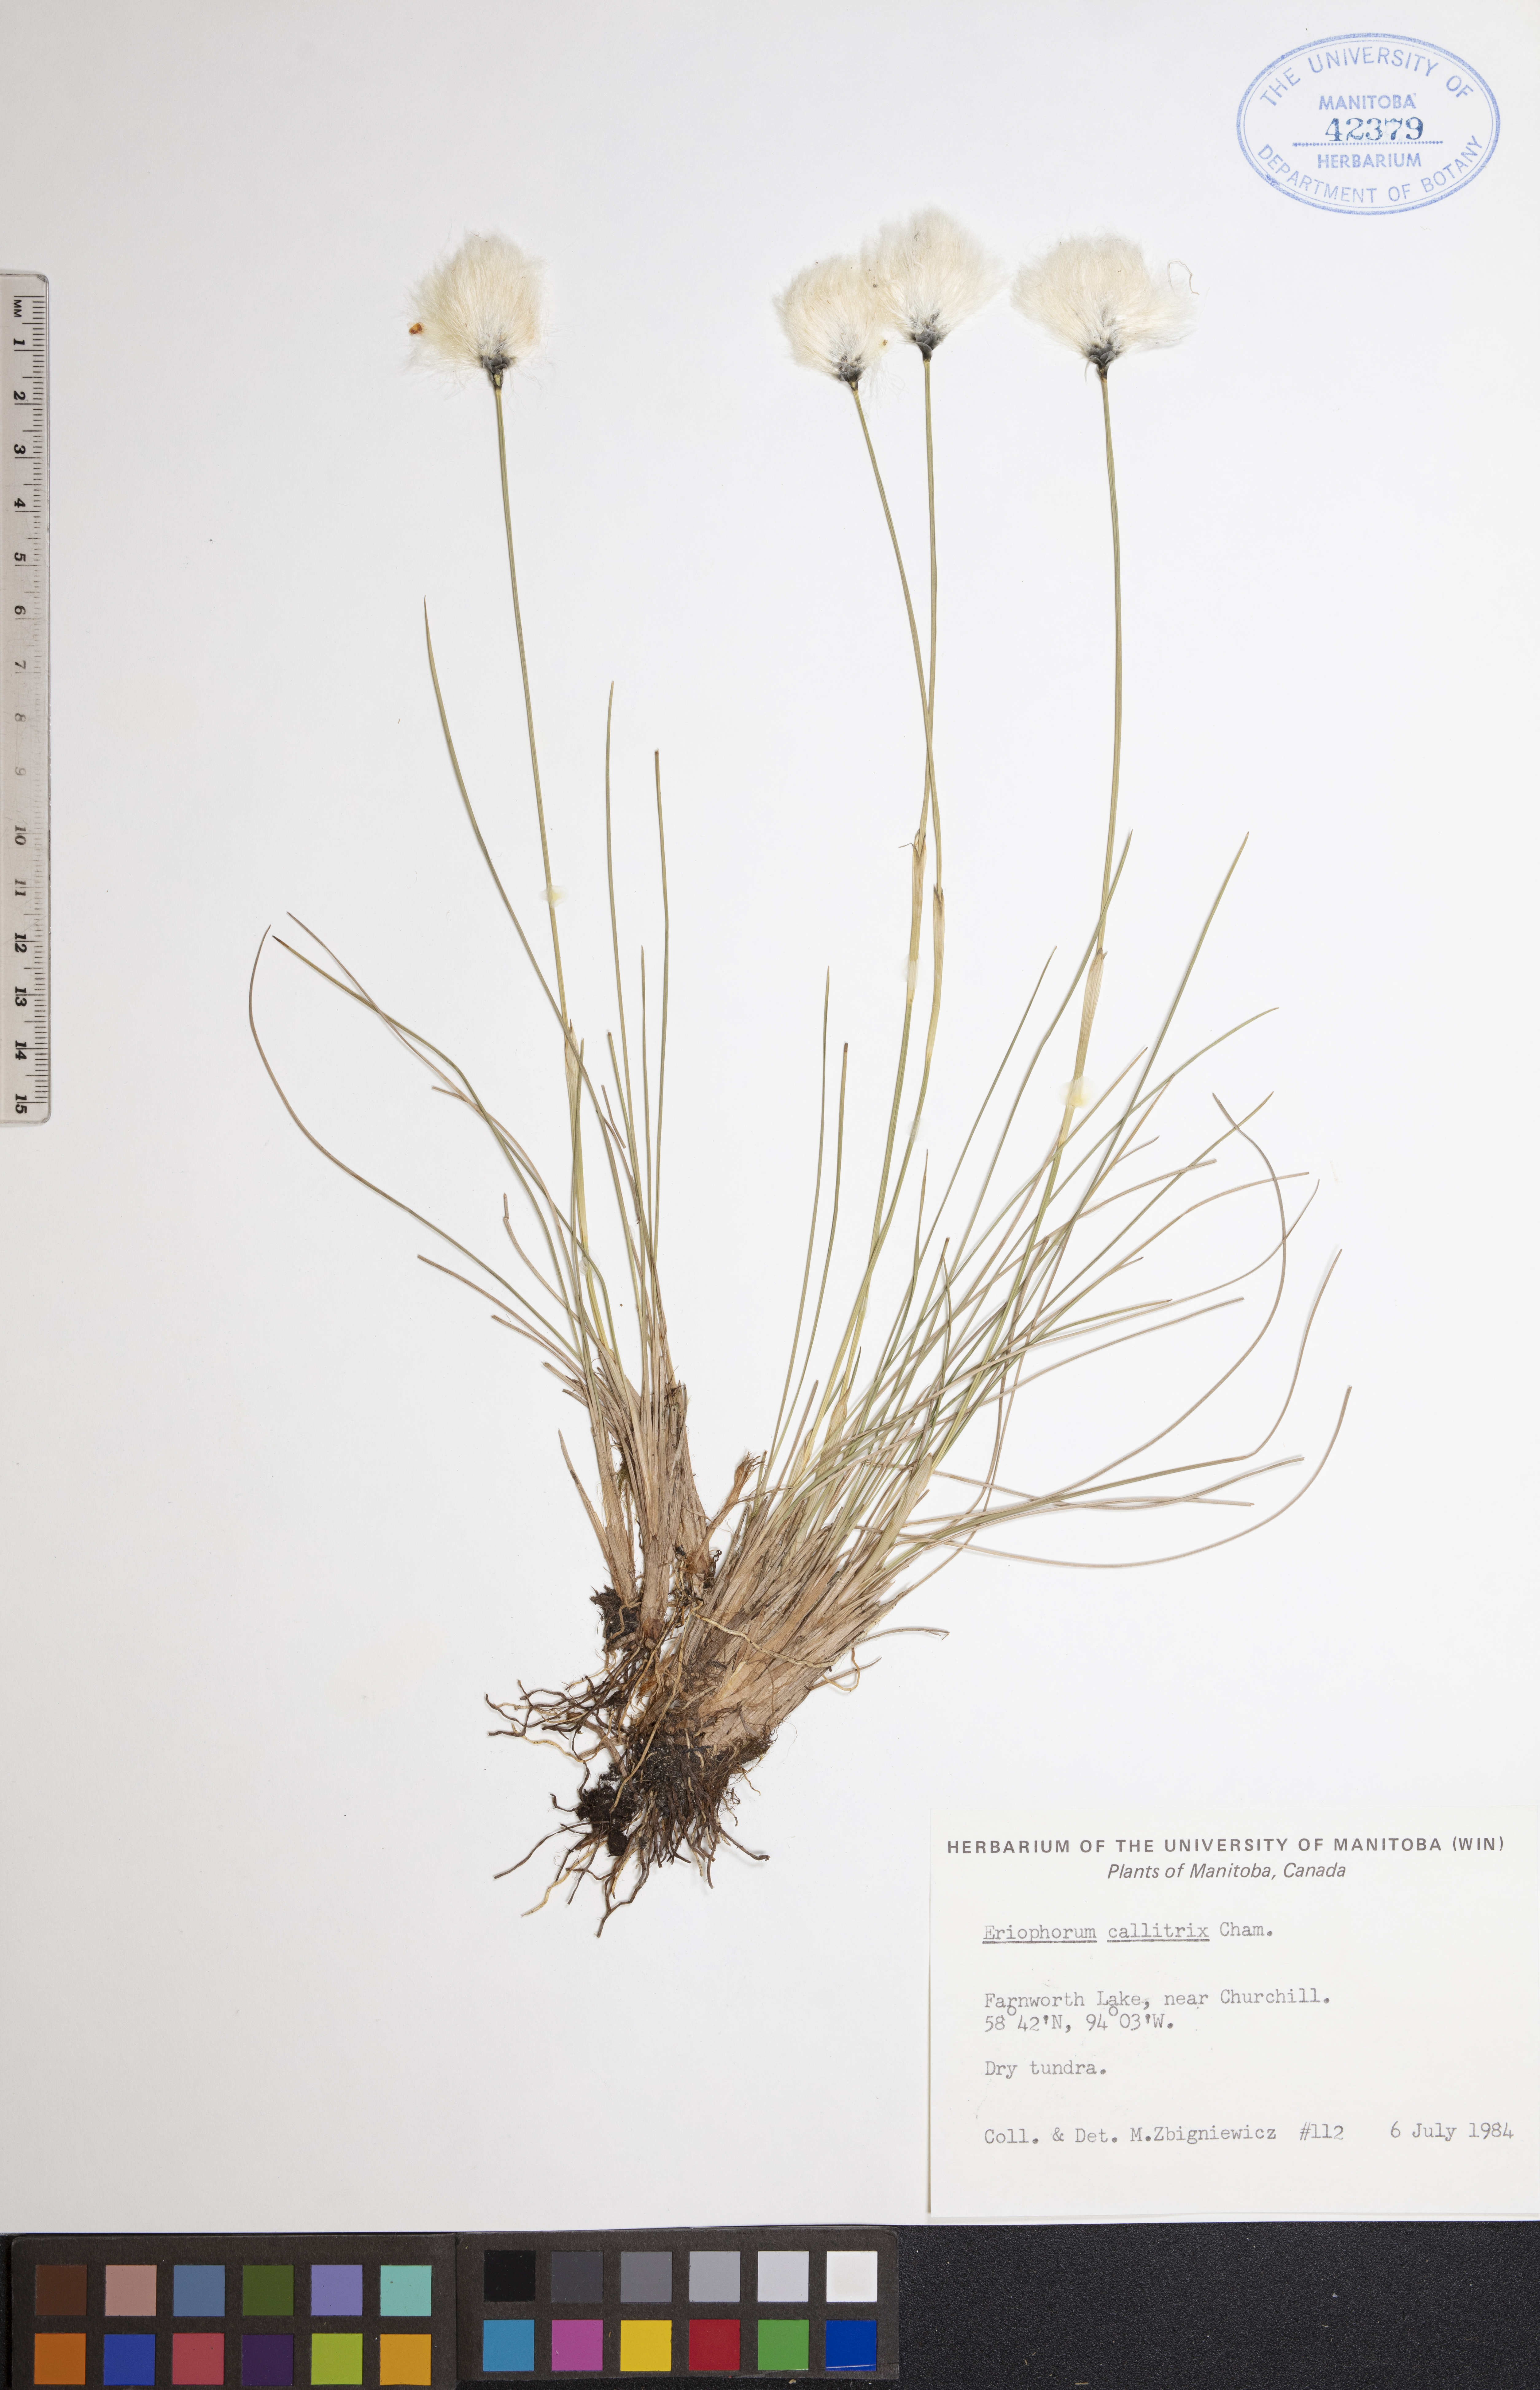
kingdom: Plantae
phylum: Tracheophyta
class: Liliopsida
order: Poales
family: Cyperaceae
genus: Eriophorum
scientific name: Eriophorum callitrix
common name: Arctic cottongrass
